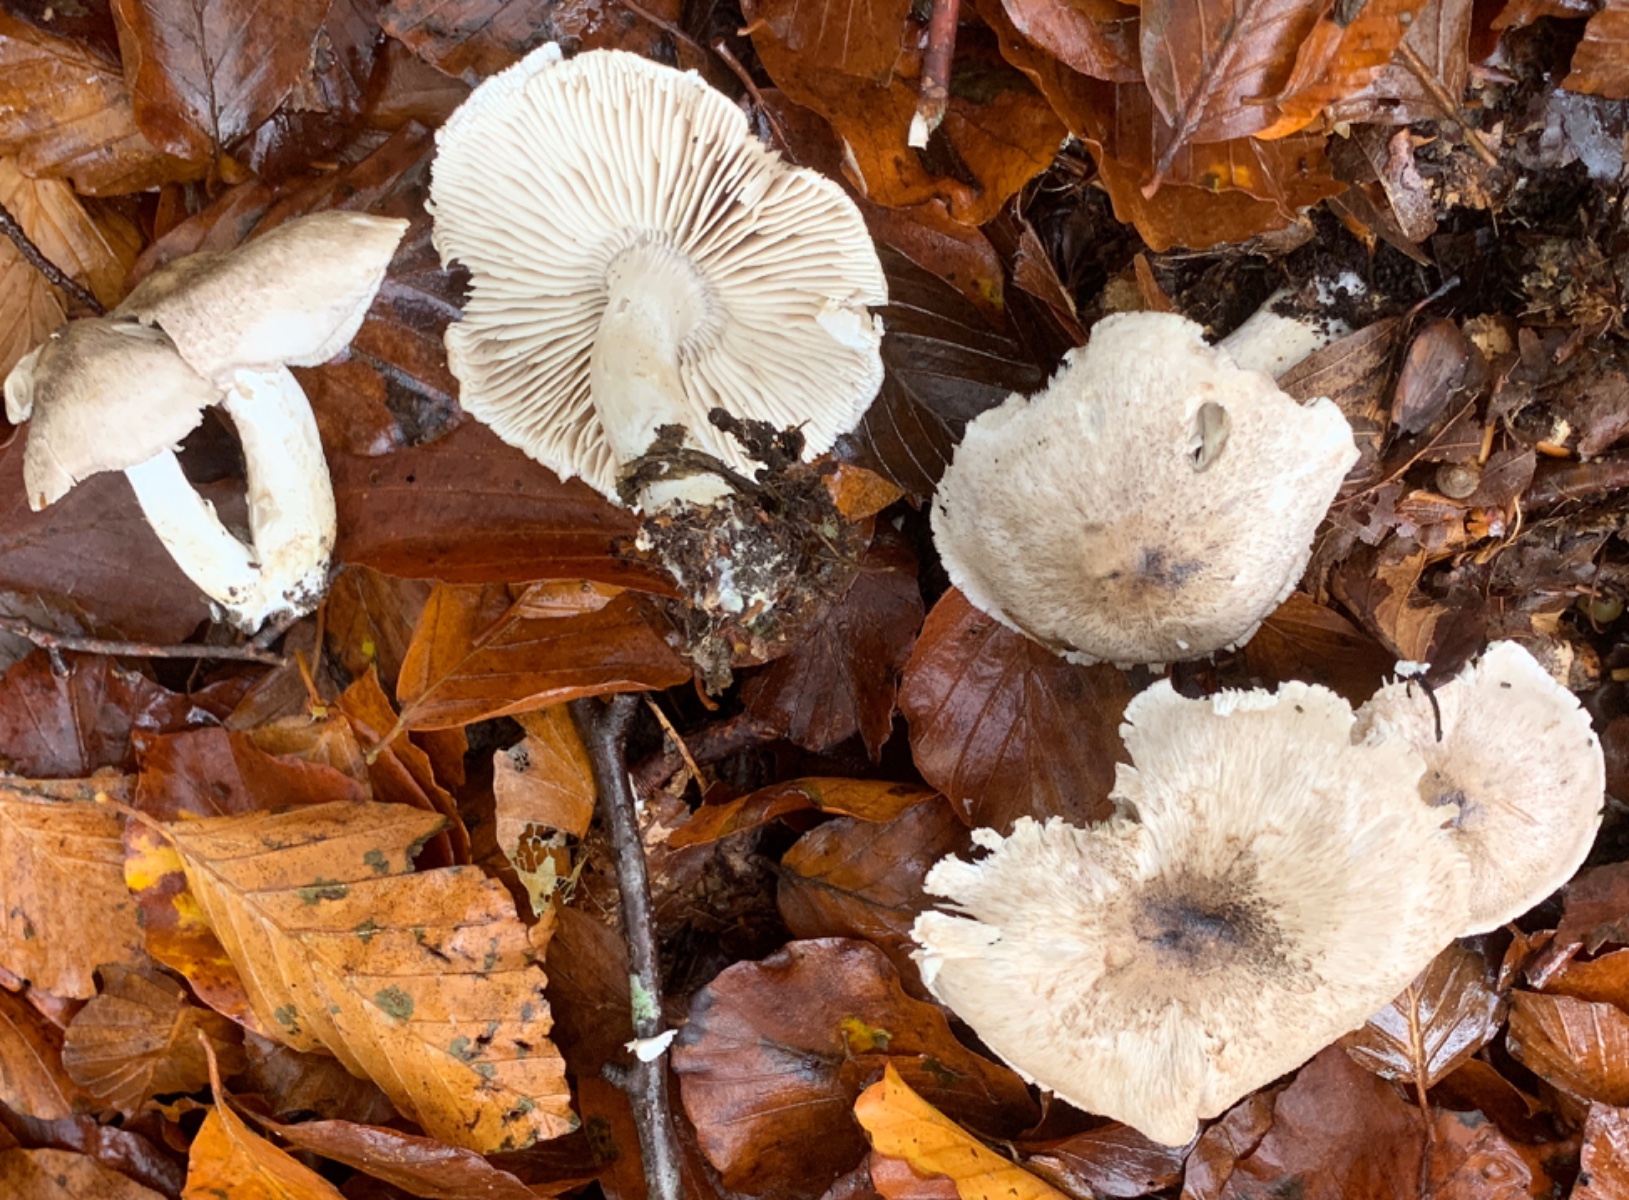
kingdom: Fungi
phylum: Basidiomycota
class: Agaricomycetes
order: Agaricales
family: Tricholomataceae
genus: Tricholoma
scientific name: Tricholoma scalpturatum
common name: gulplettet ridderhat
